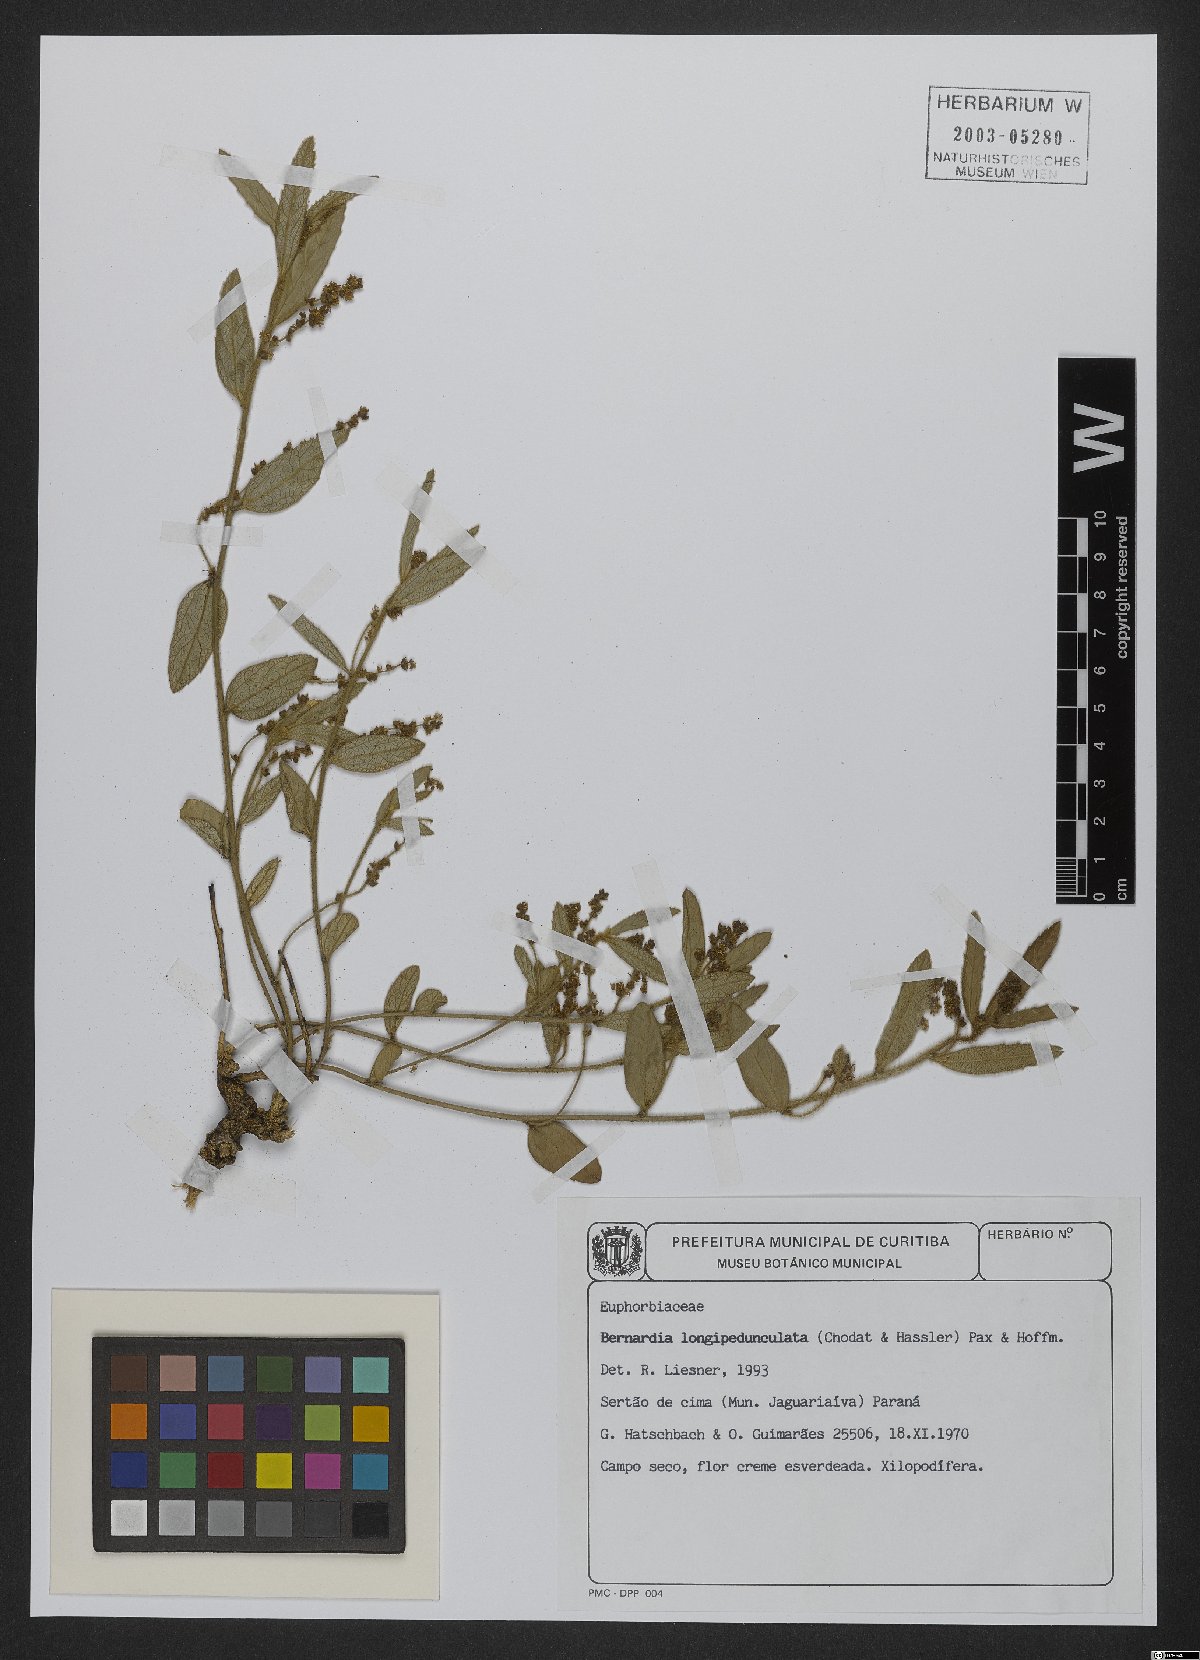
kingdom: Plantae
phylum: Tracheophyta
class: Magnoliopsida
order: Malpighiales
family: Euphorbiaceae
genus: Bernardia
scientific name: Bernardia longipedunculata
